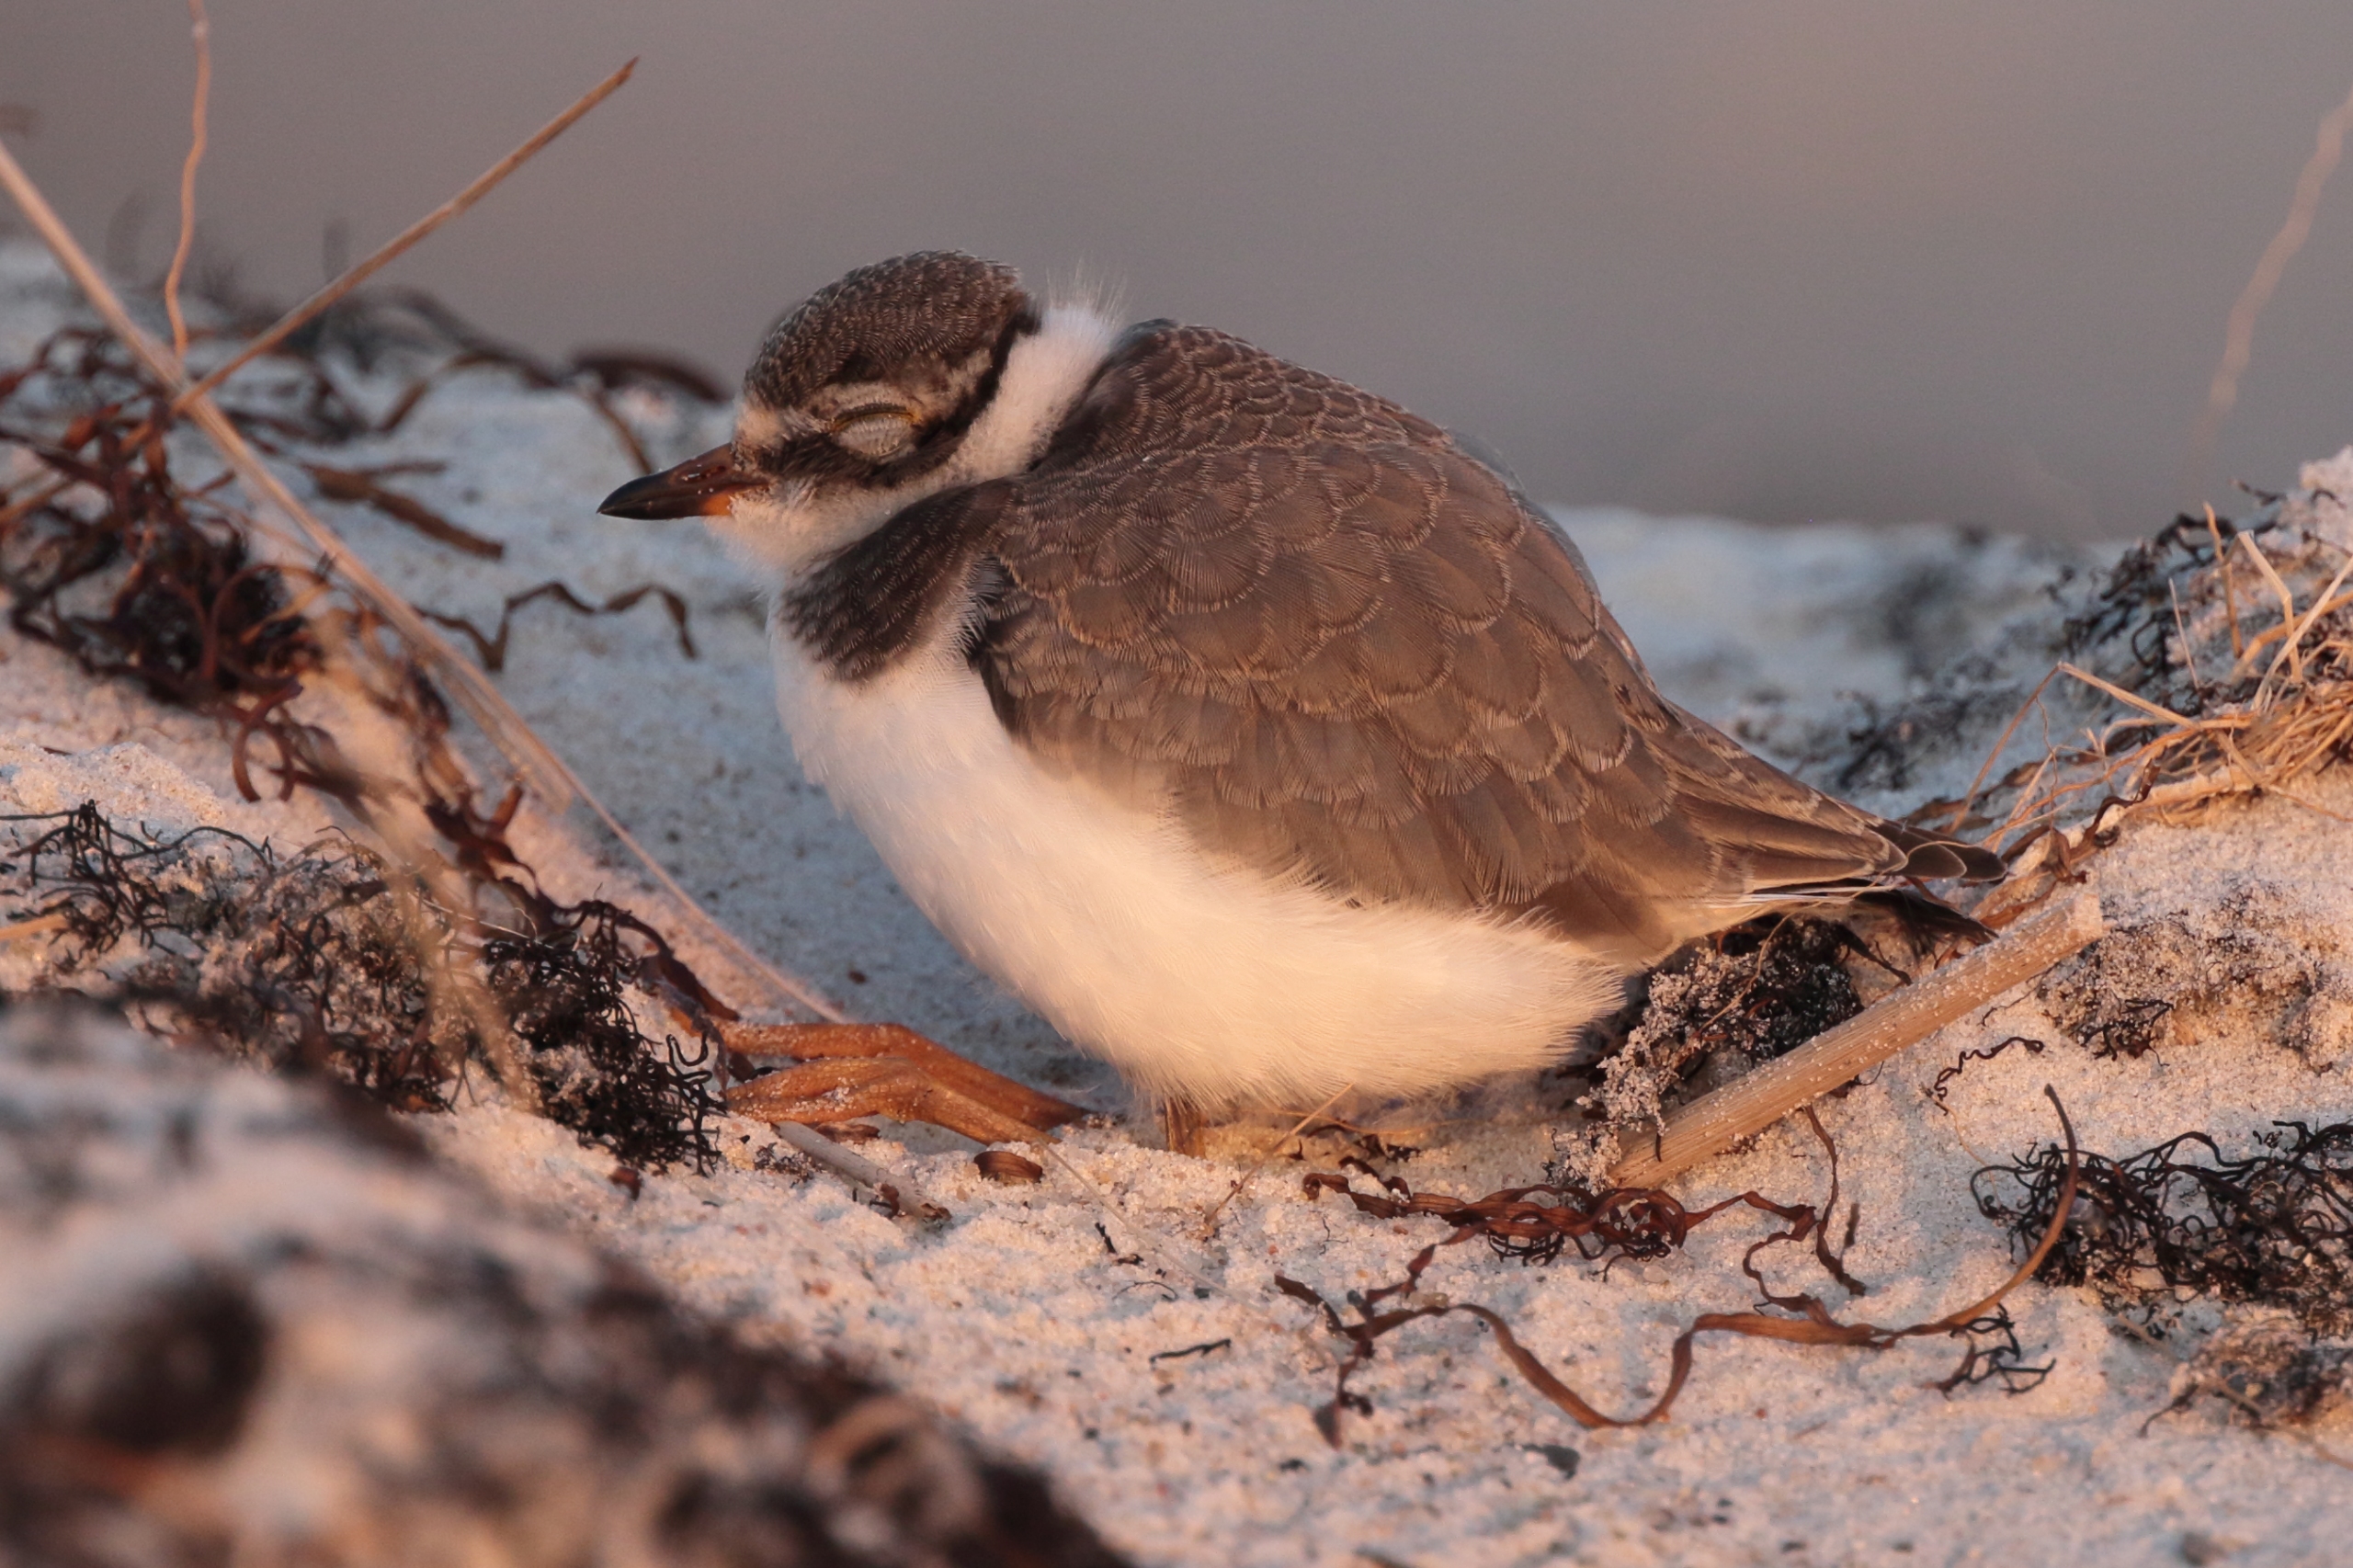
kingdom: Animalia
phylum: Chordata
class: Aves
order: Charadriiformes
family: Charadriidae
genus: Charadrius
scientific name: Charadrius hiaticula
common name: Stor præstekrave
